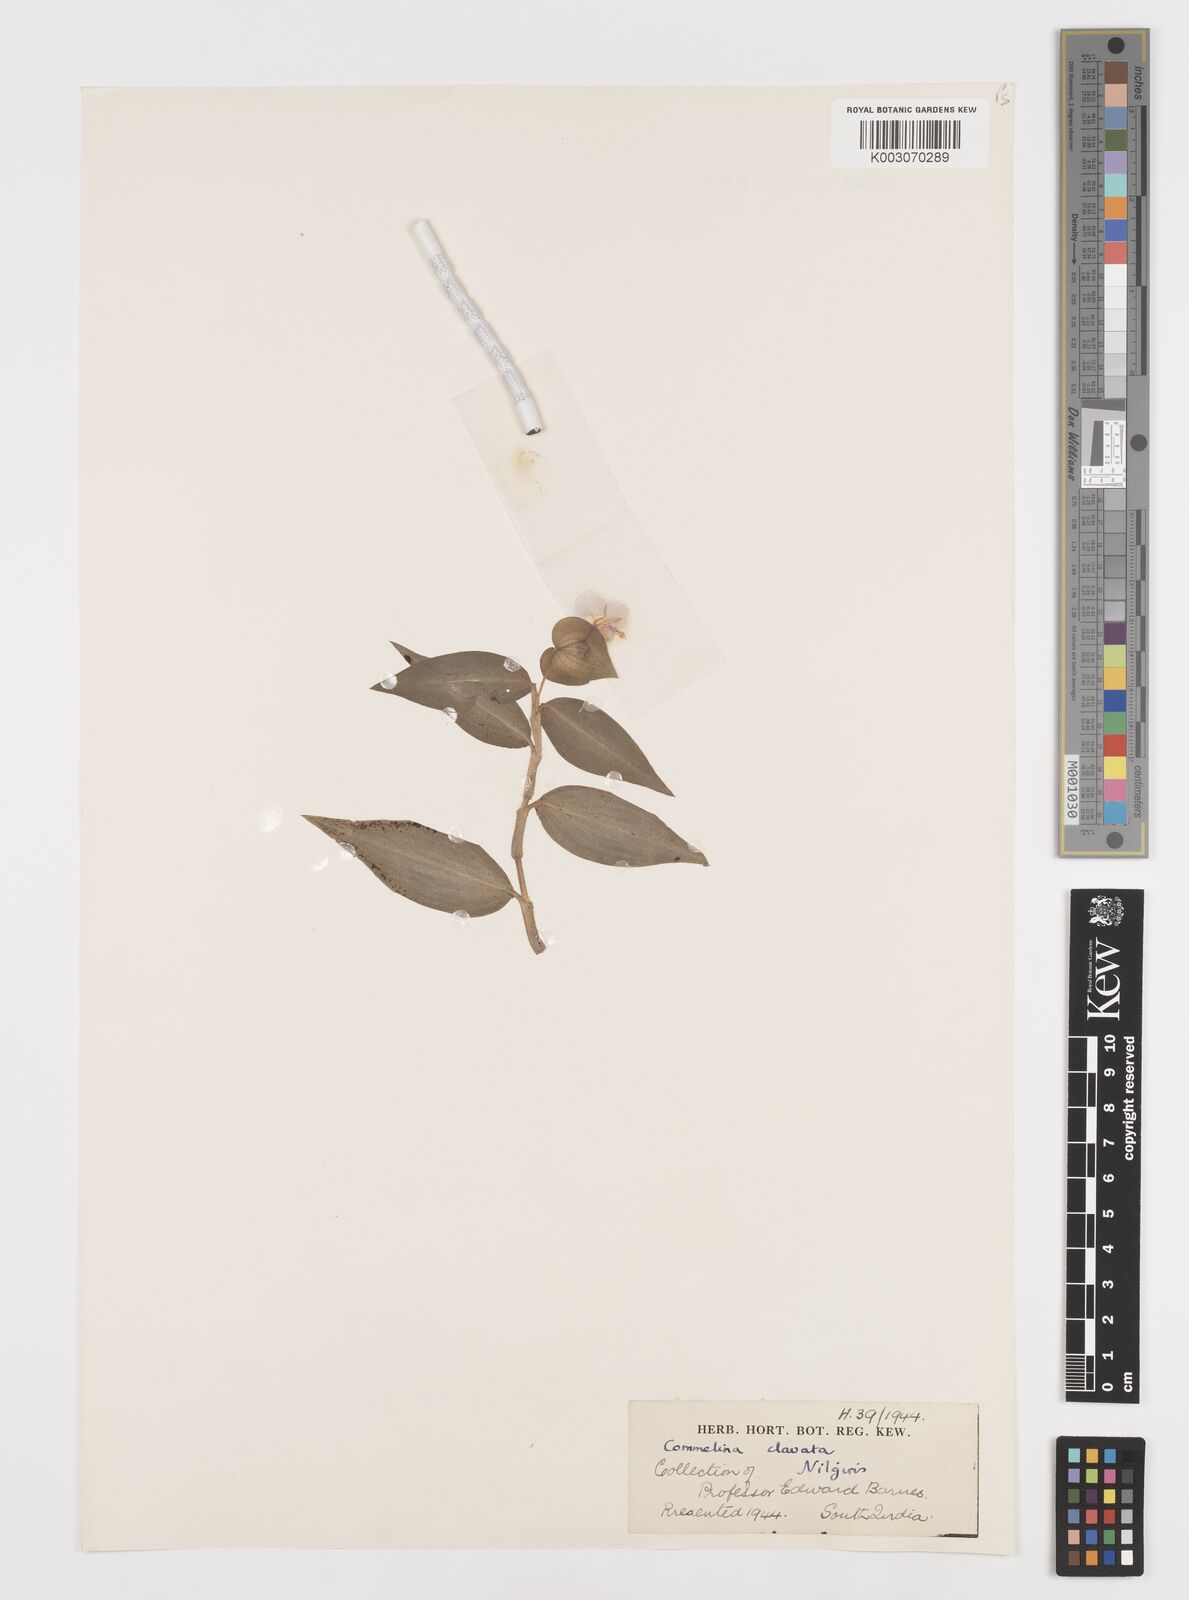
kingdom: Plantae
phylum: Tracheophyta
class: Liliopsida
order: Commelinales
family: Commelinaceae
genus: Commelina
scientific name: Commelina clavata
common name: Willow leaved dayflower
